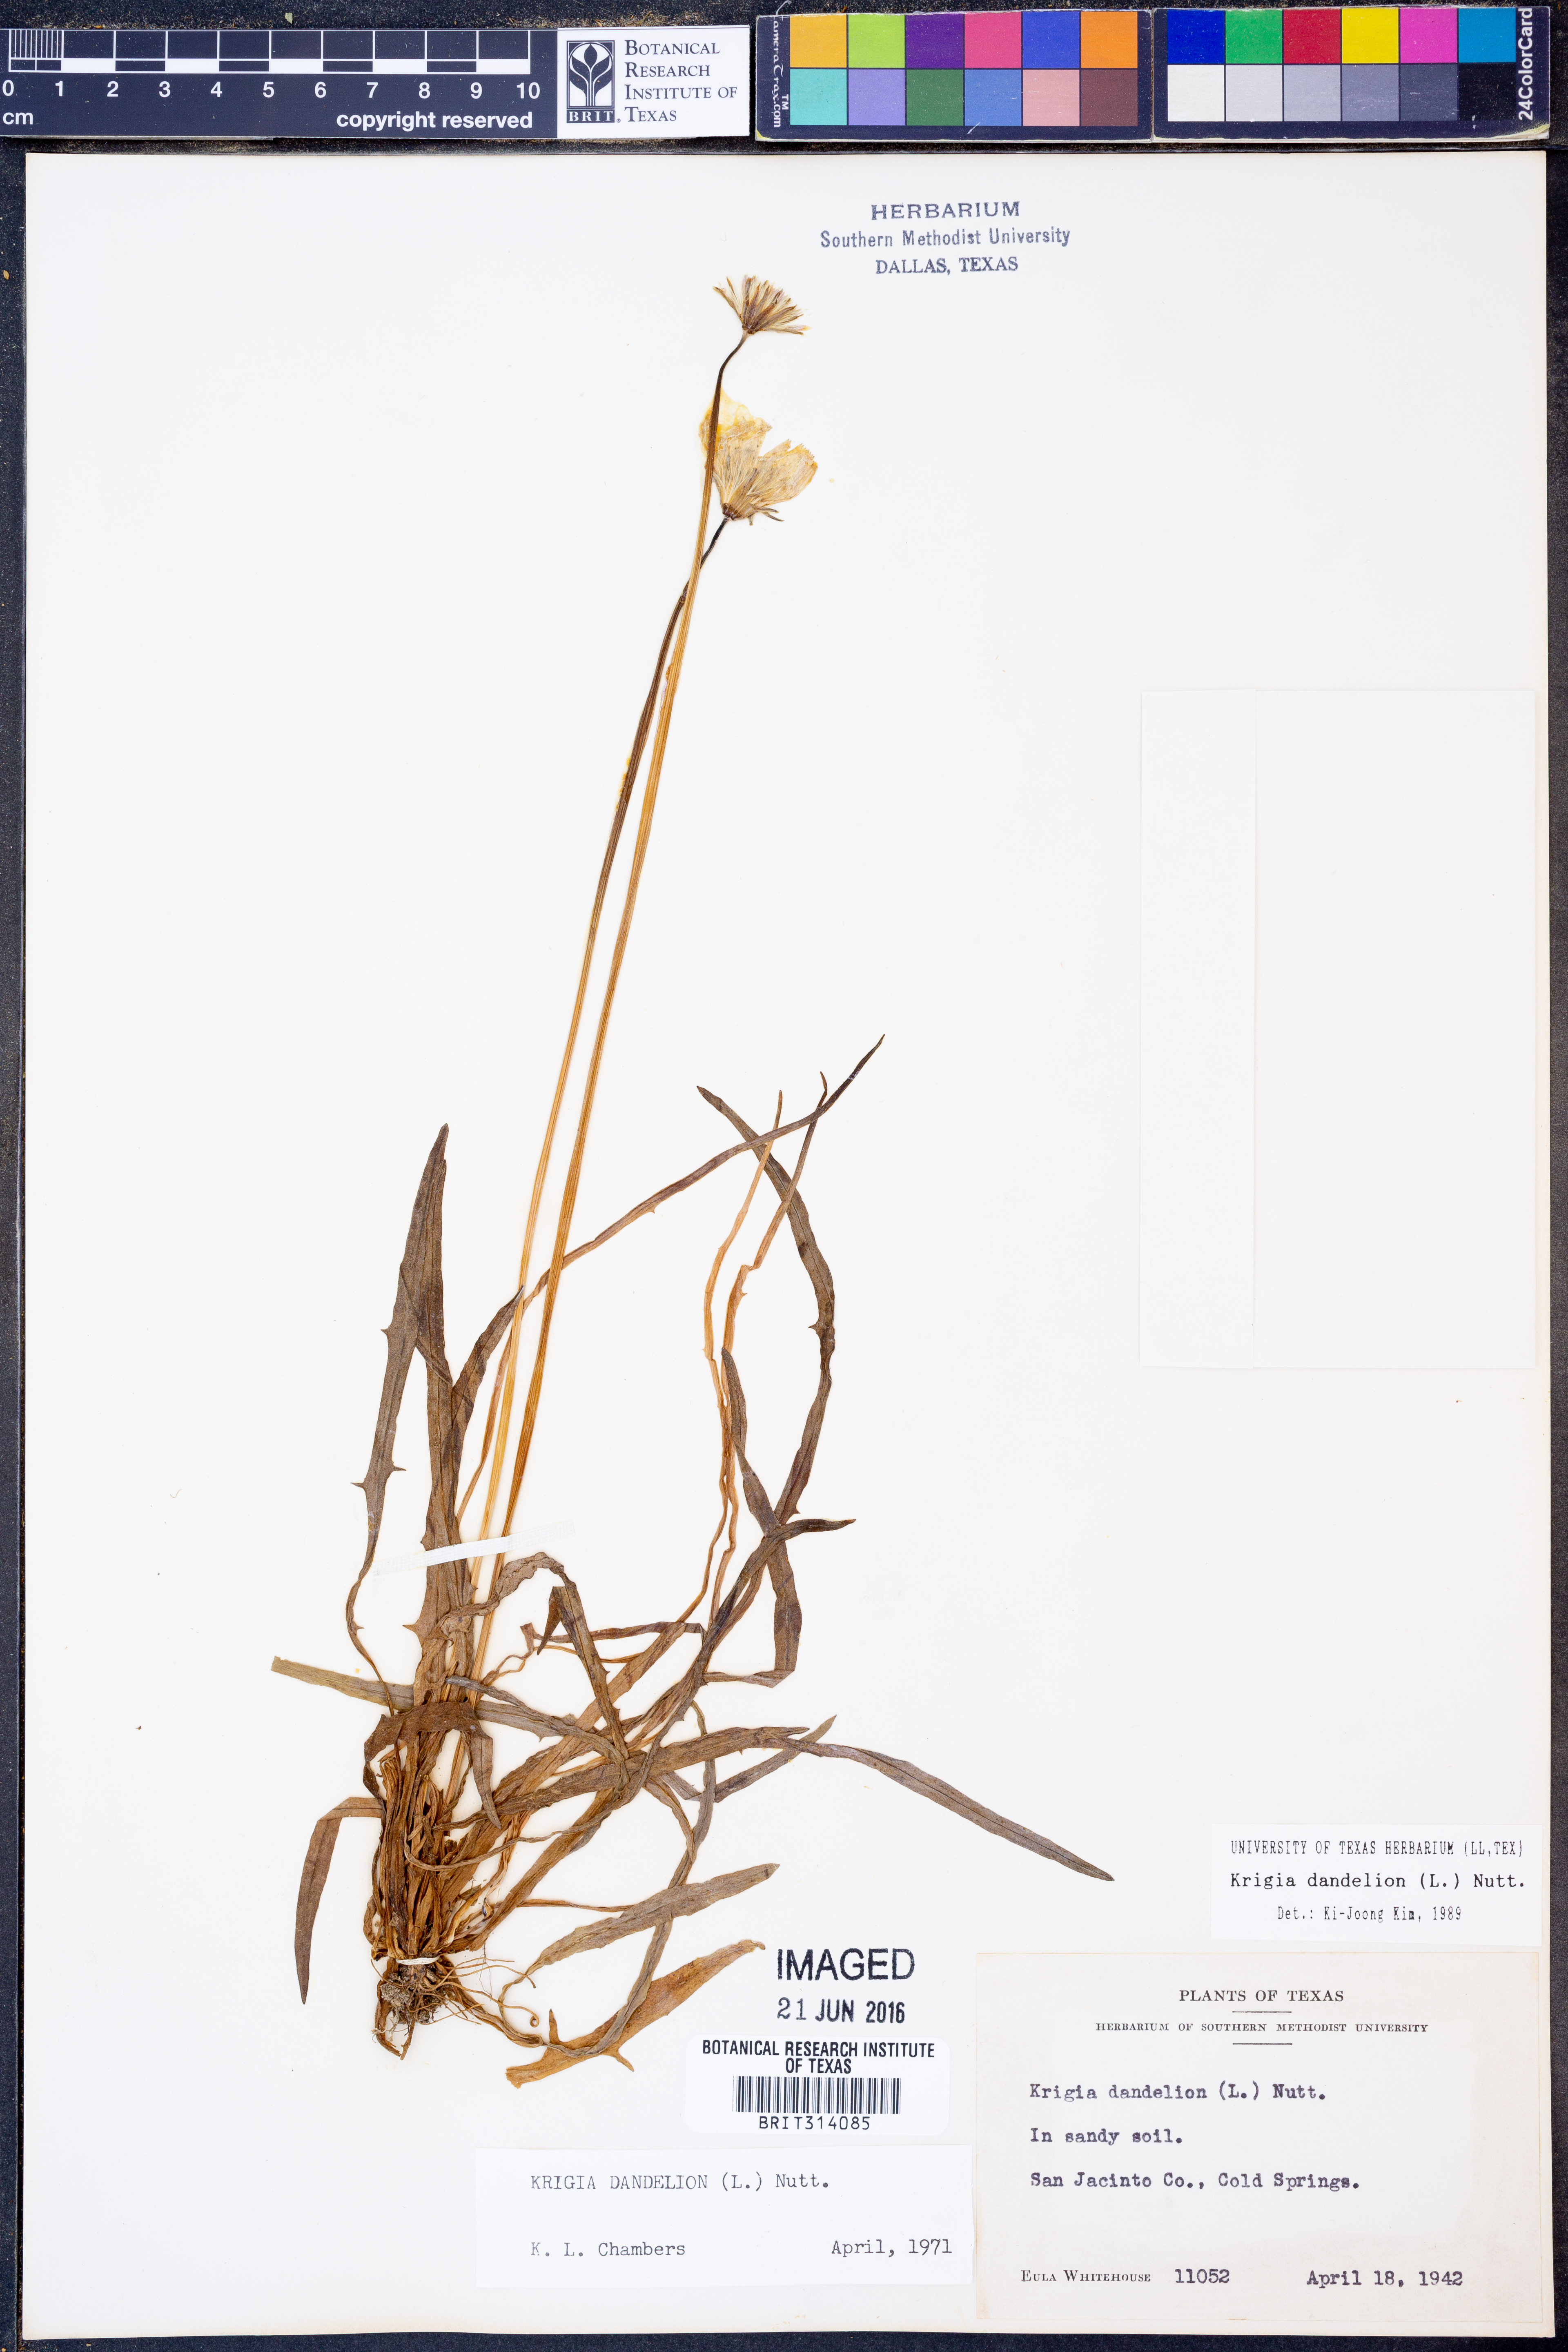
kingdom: Plantae
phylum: Tracheophyta
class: Magnoliopsida
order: Asterales
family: Asteraceae
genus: Krigia
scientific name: Krigia dandelion
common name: Colonial dwarf-dandelion
